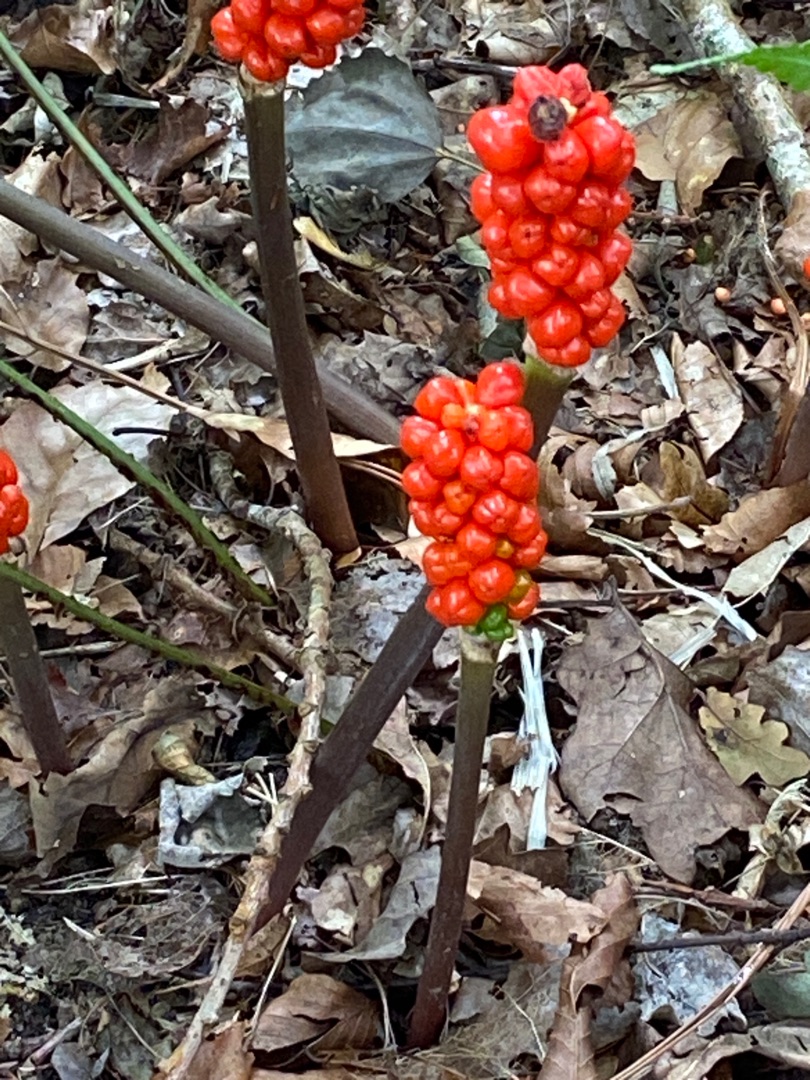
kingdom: Plantae
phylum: Tracheophyta
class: Liliopsida
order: Alismatales
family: Araceae
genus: Arum
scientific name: Arum
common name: Arumslægten
